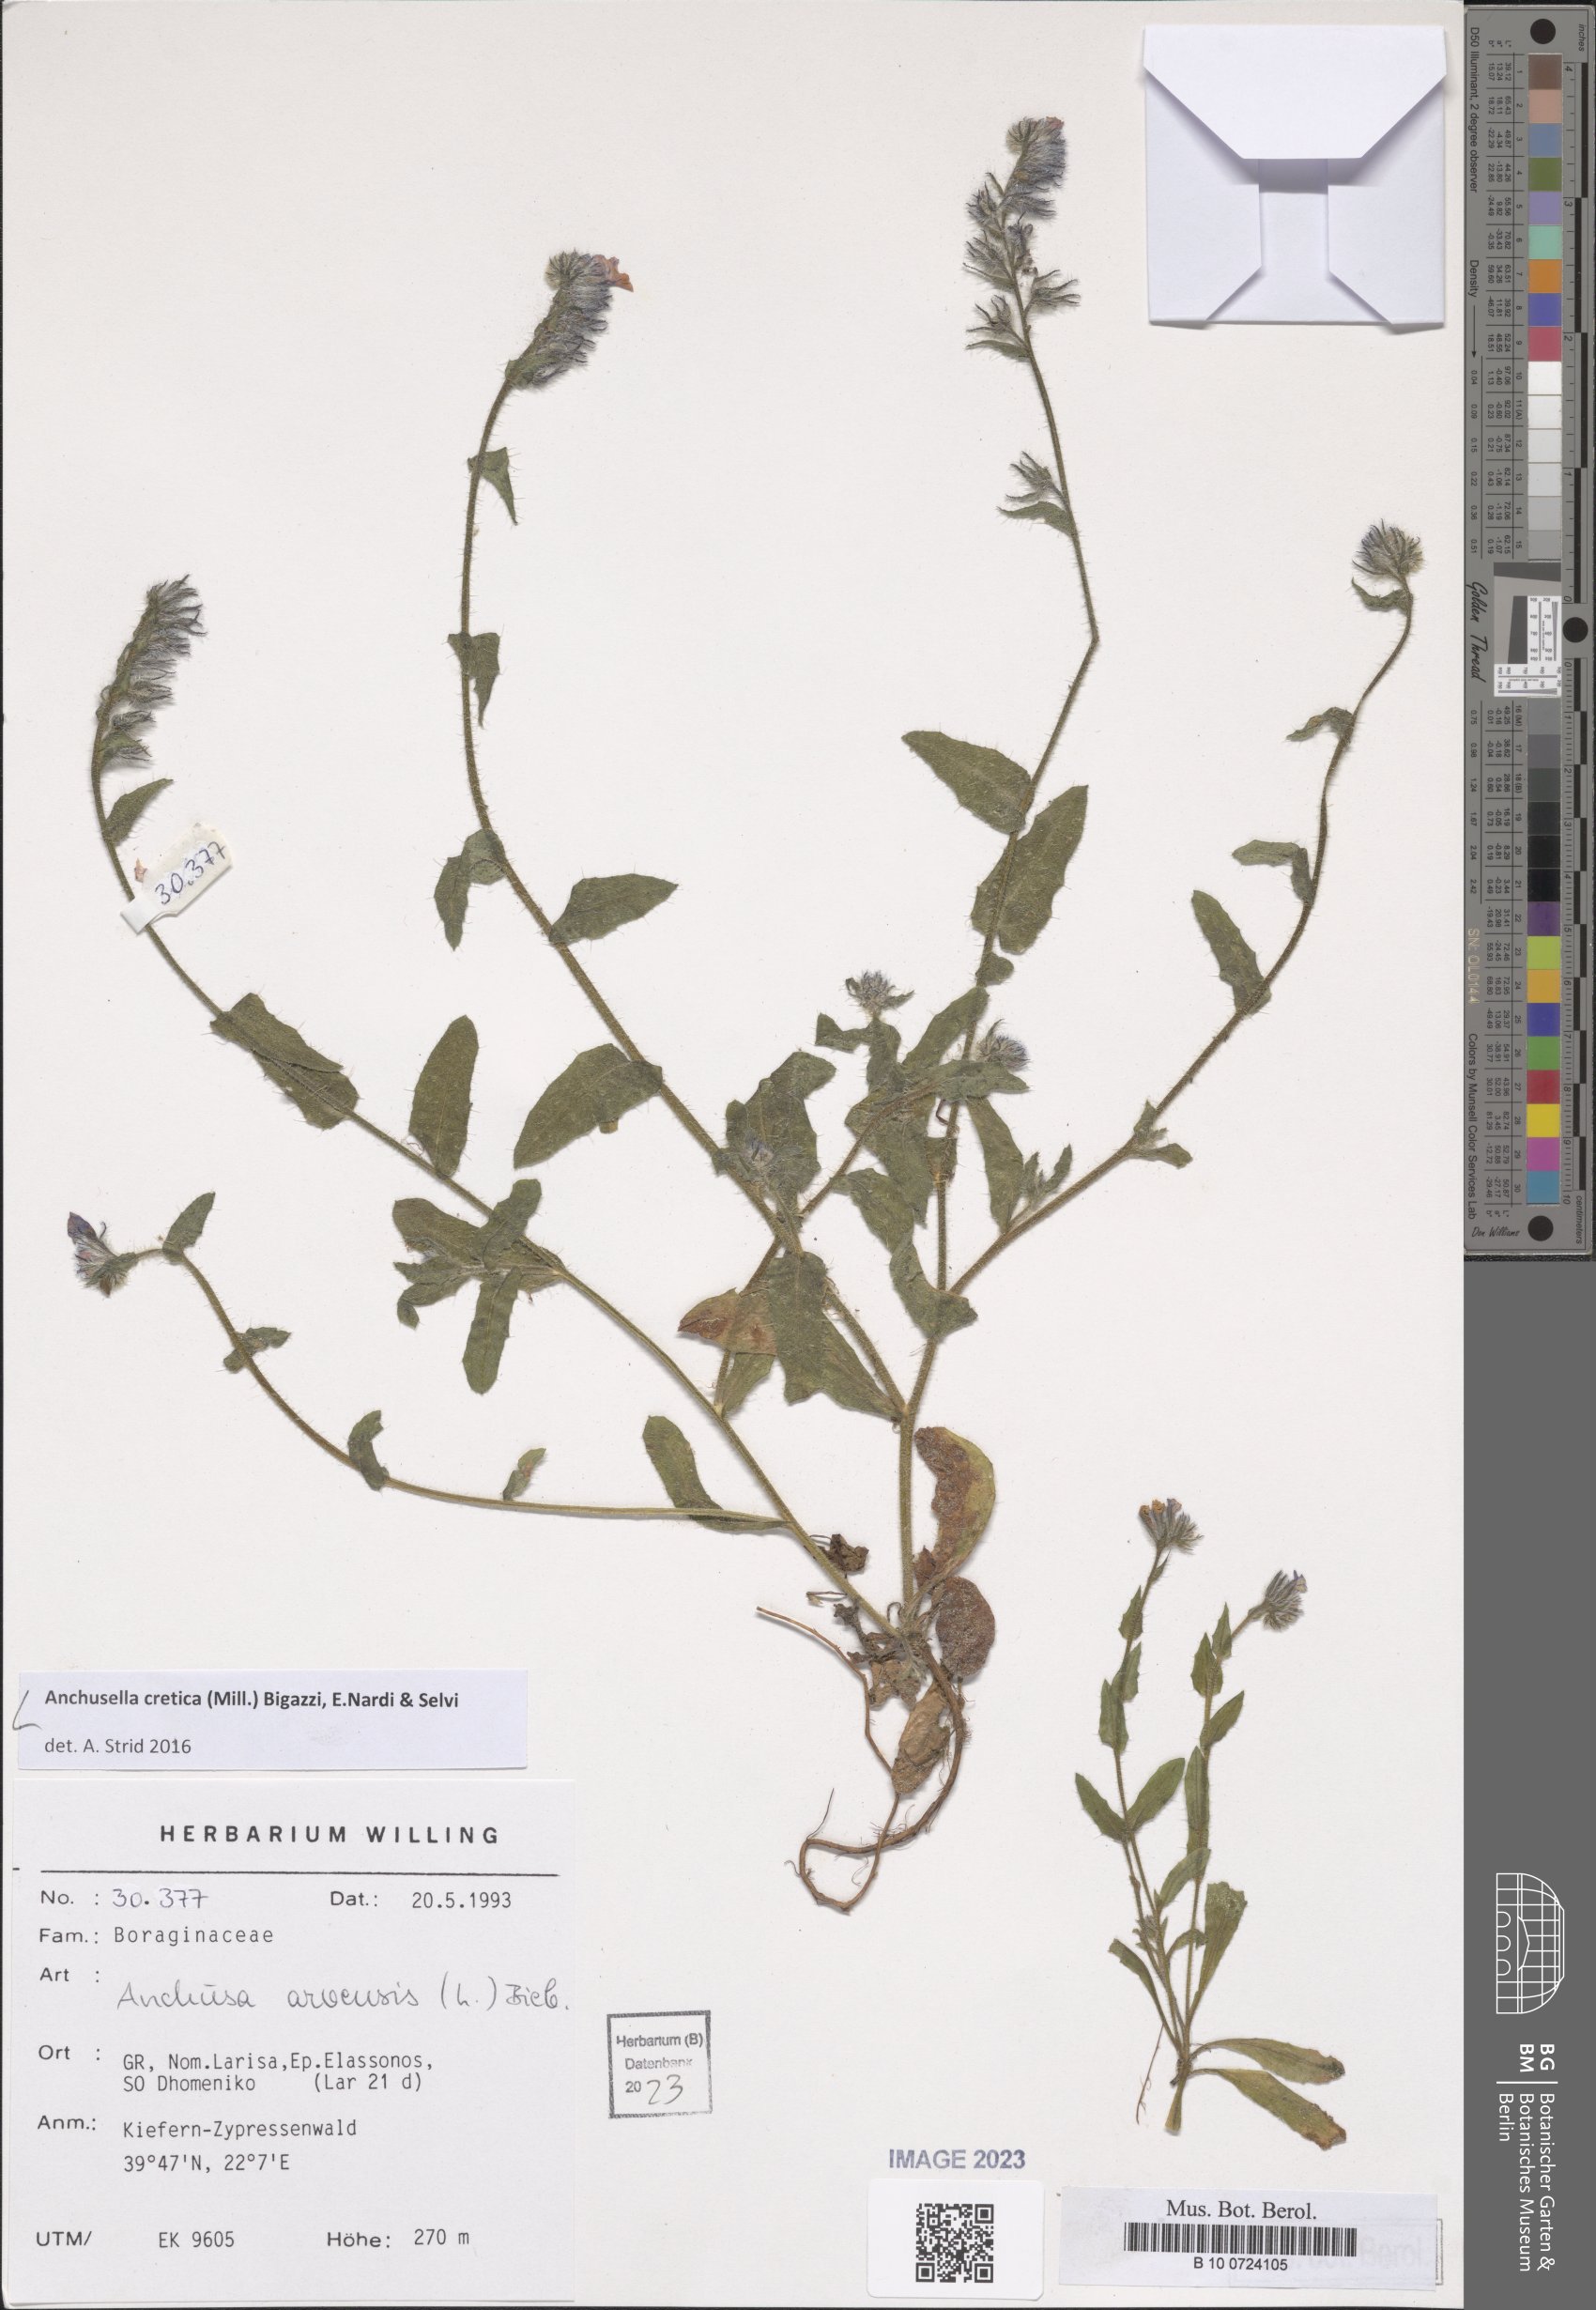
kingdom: Plantae
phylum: Tracheophyta
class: Magnoliopsida
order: Boraginales
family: Boraginaceae
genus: Anchusella
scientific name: Anchusella cretica
